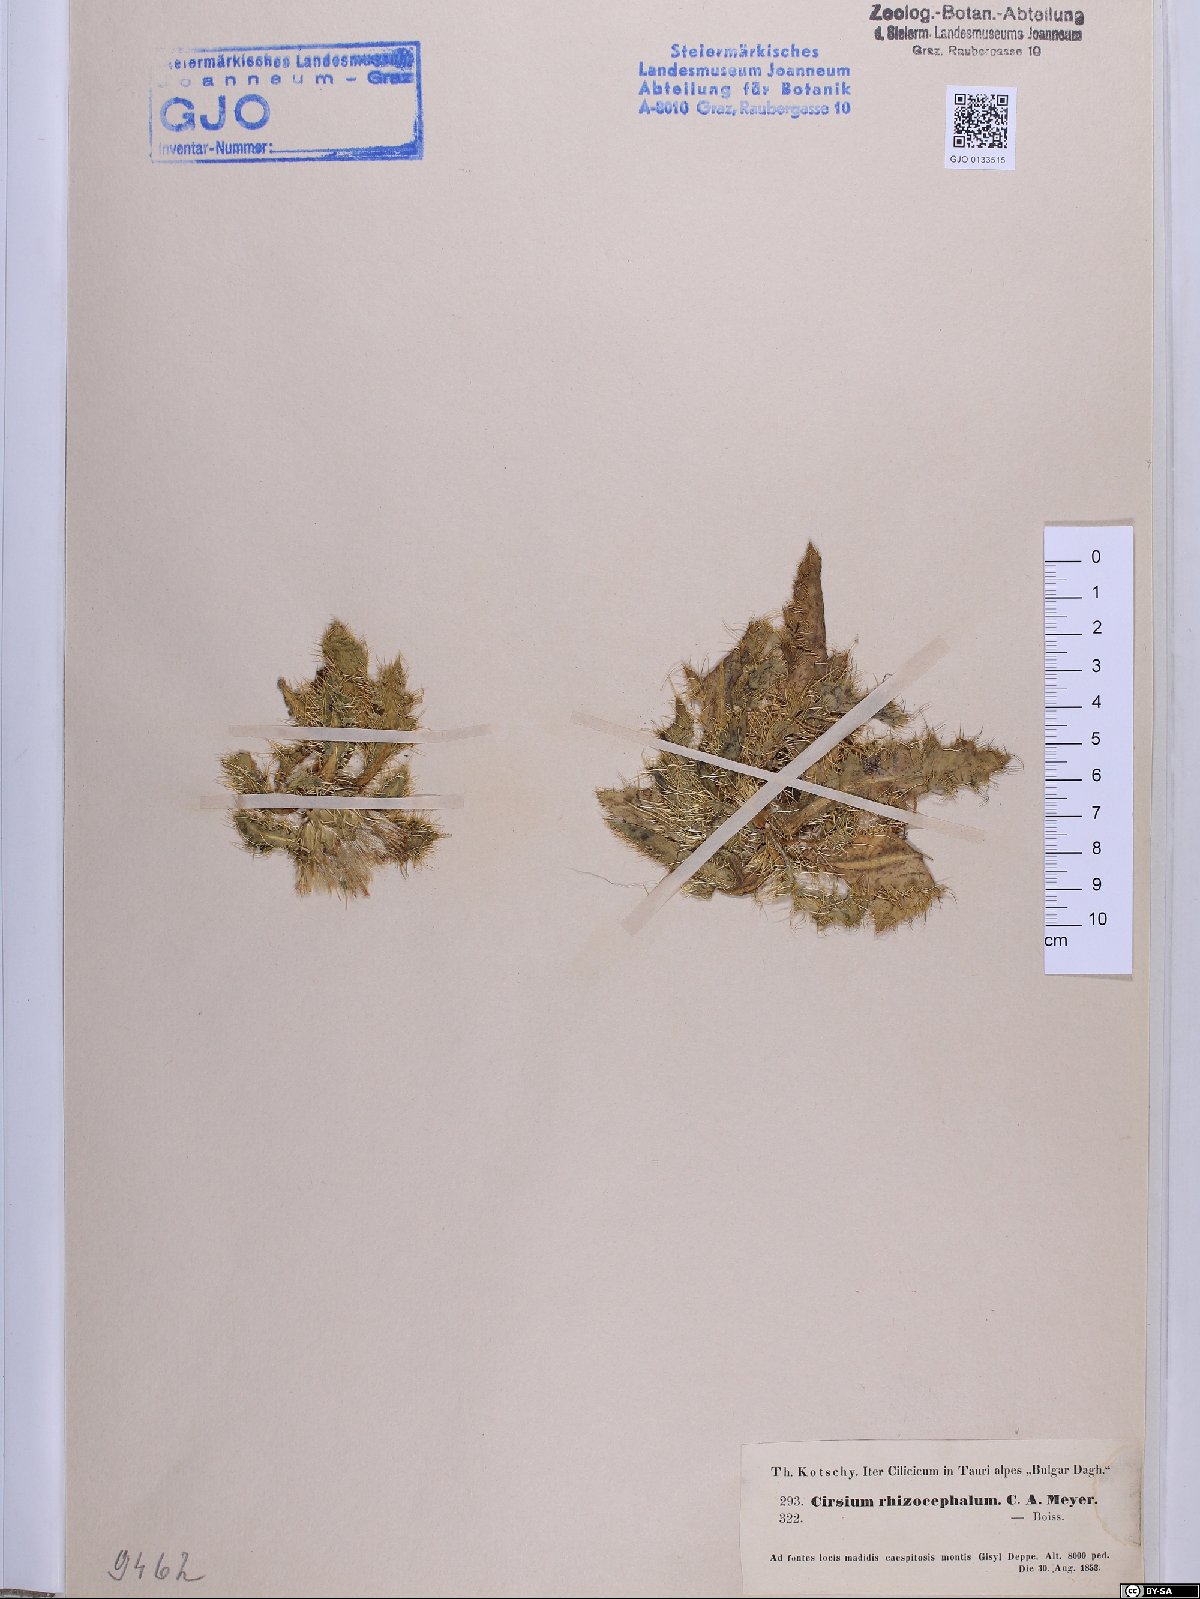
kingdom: Plantae
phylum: Tracheophyta
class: Magnoliopsida
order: Asterales
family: Asteraceae
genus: Cirsium
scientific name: Cirsium rhizocephalum
